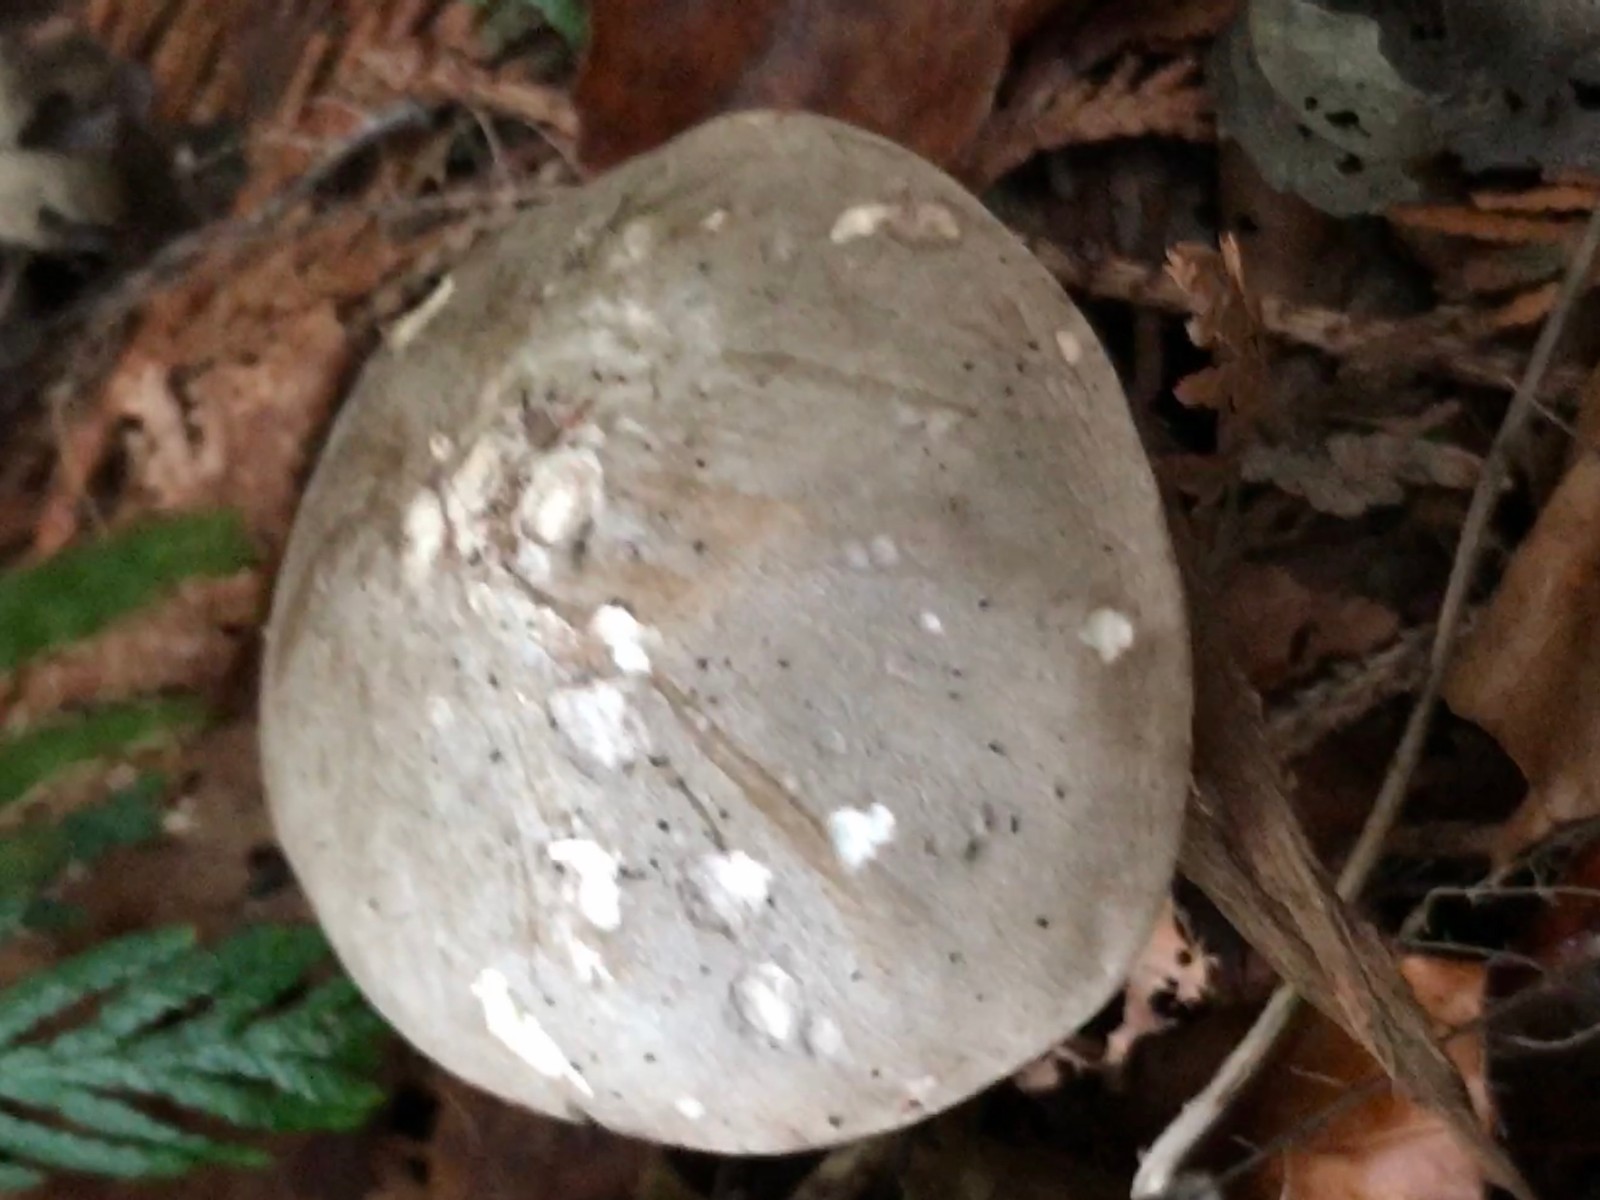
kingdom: Fungi
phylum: Basidiomycota
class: Agaricomycetes
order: Agaricales
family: Tricholomataceae
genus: Clitocybe
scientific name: Clitocybe nebularis
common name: tåge-tragthat
